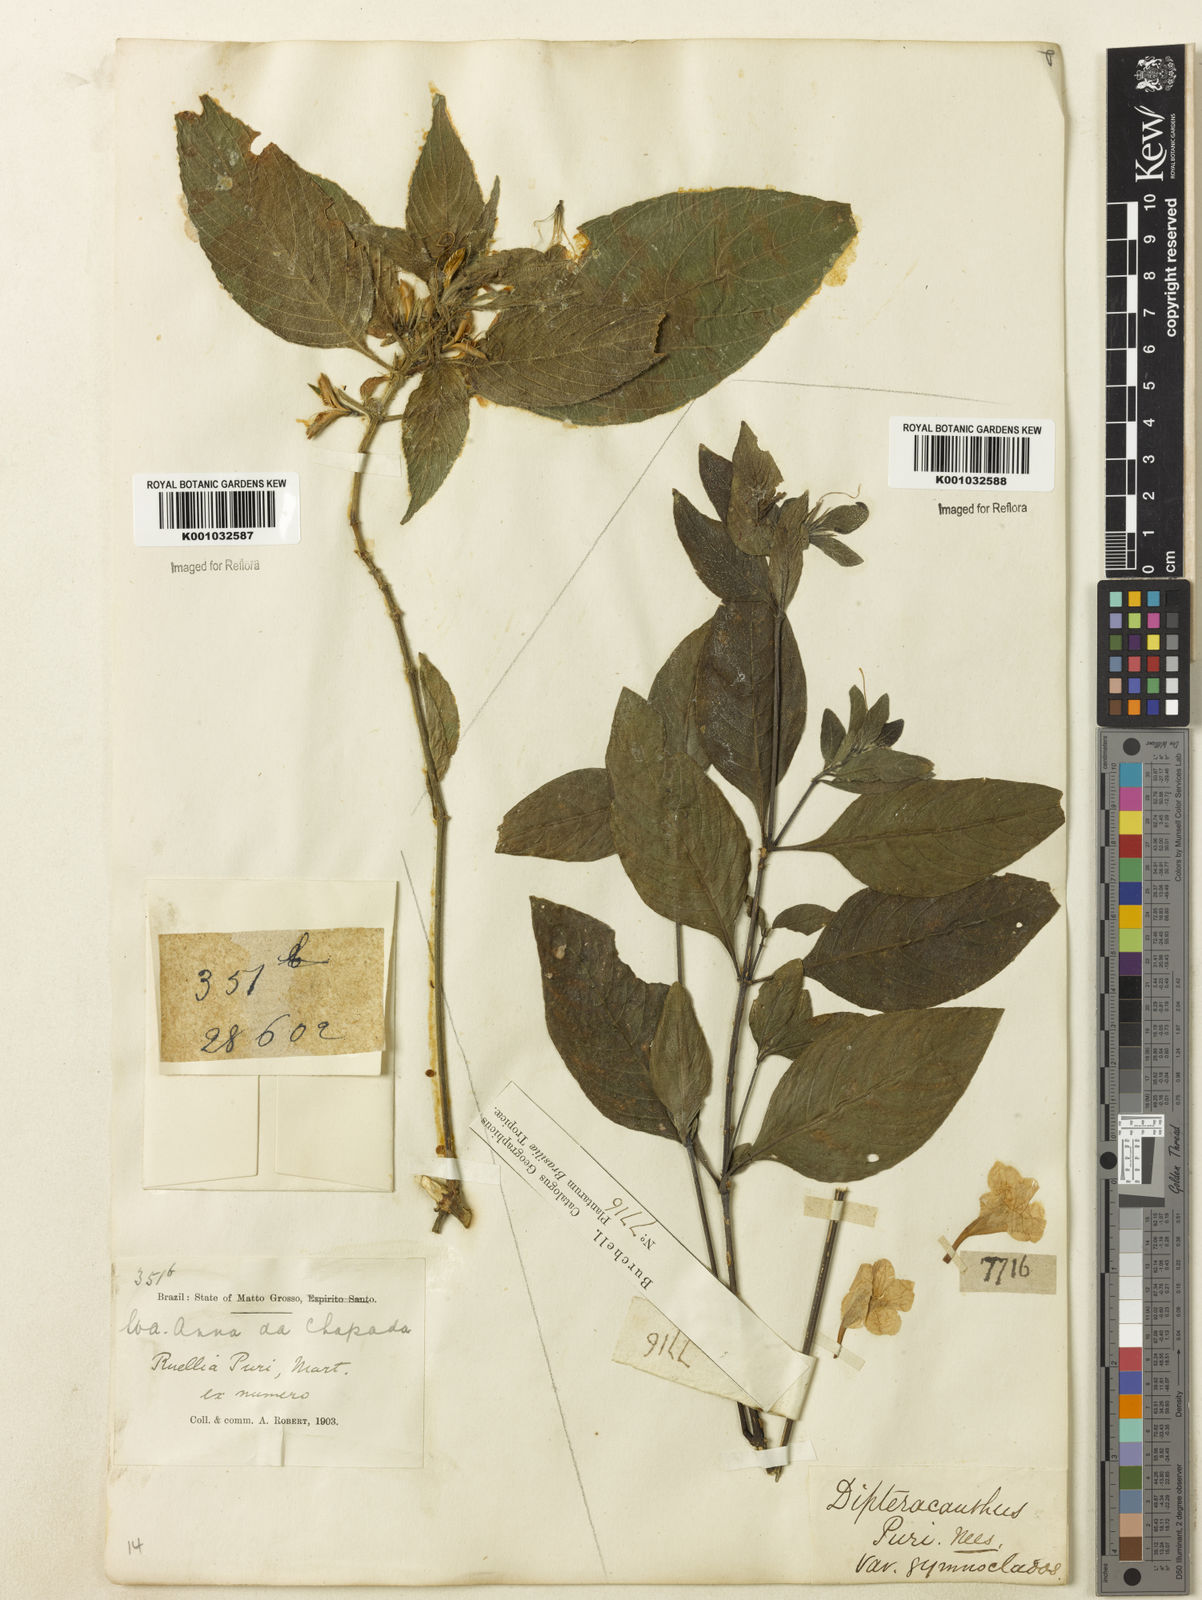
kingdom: Plantae
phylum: Tracheophyta
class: Magnoliopsida
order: Lamiales
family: Acanthaceae
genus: Ruellia
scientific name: Ruellia jussieuoides
